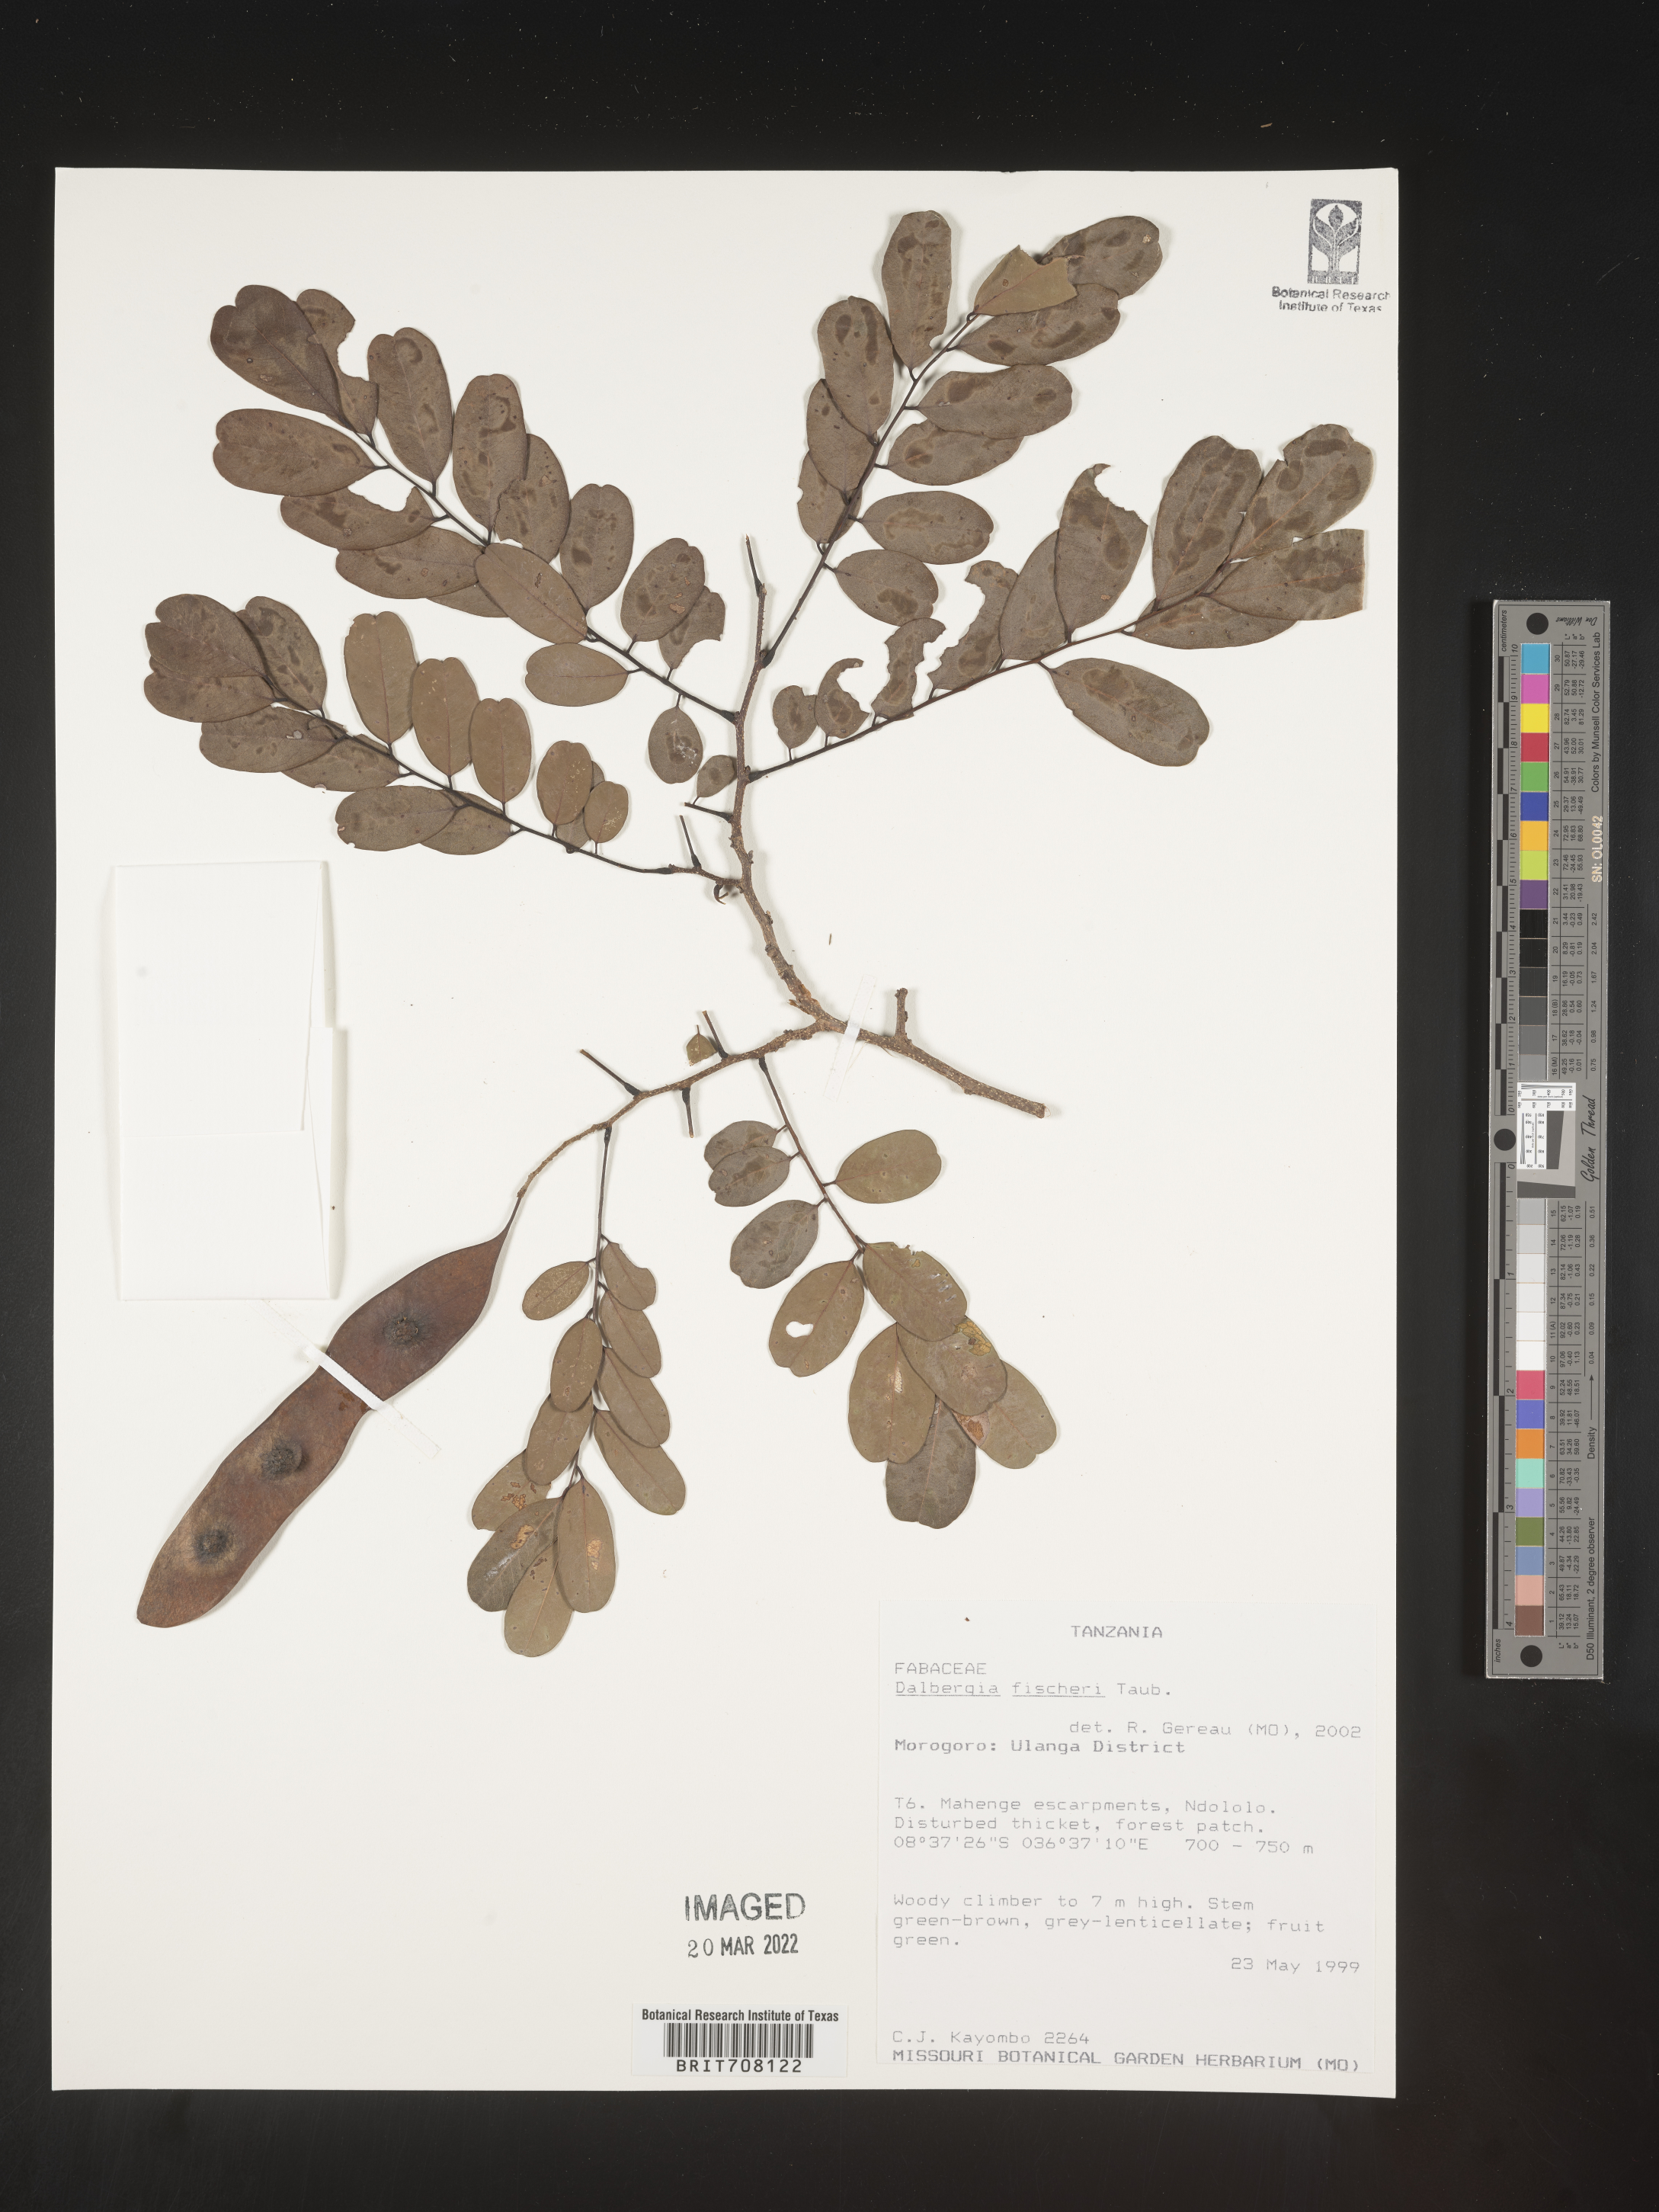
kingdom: Plantae
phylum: Tracheophyta
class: Magnoliopsida
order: Fabales
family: Fabaceae
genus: Dalbergia
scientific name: Dalbergia
